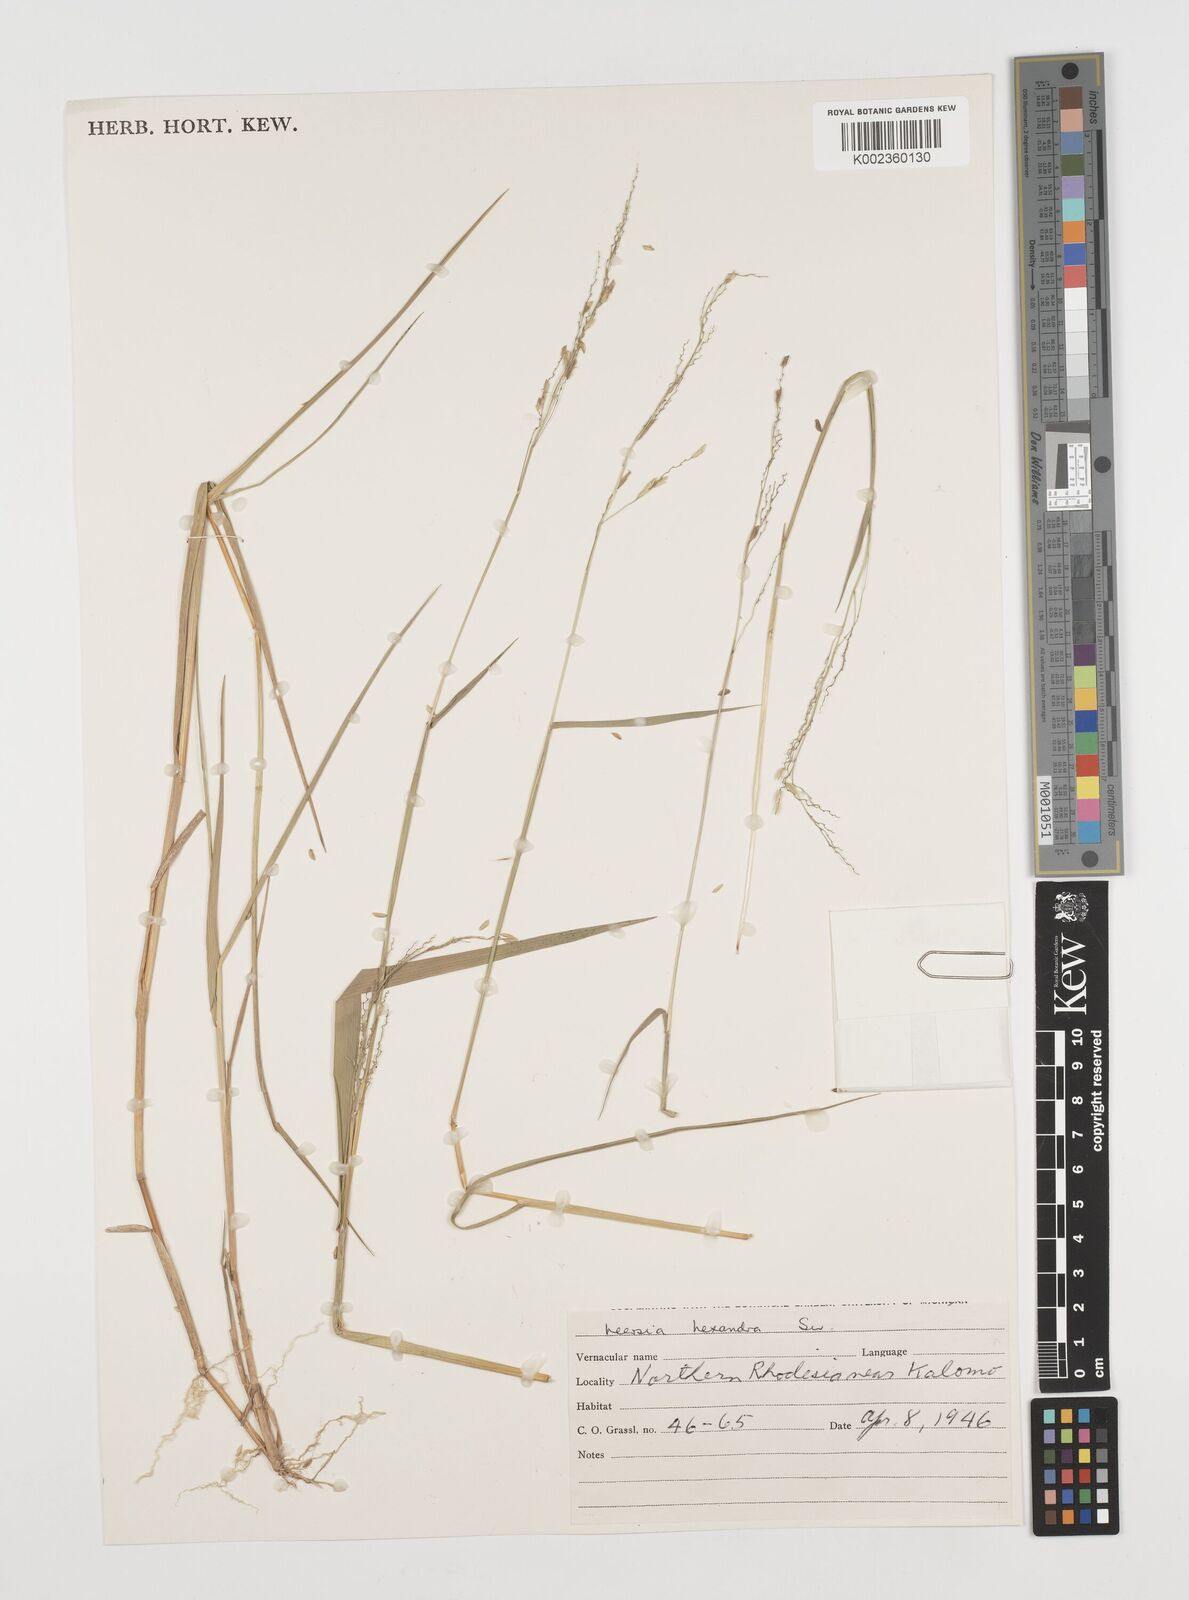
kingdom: Plantae
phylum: Tracheophyta
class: Liliopsida
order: Poales
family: Poaceae
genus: Leersia
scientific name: Leersia hexandra
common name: Southern cut grass
